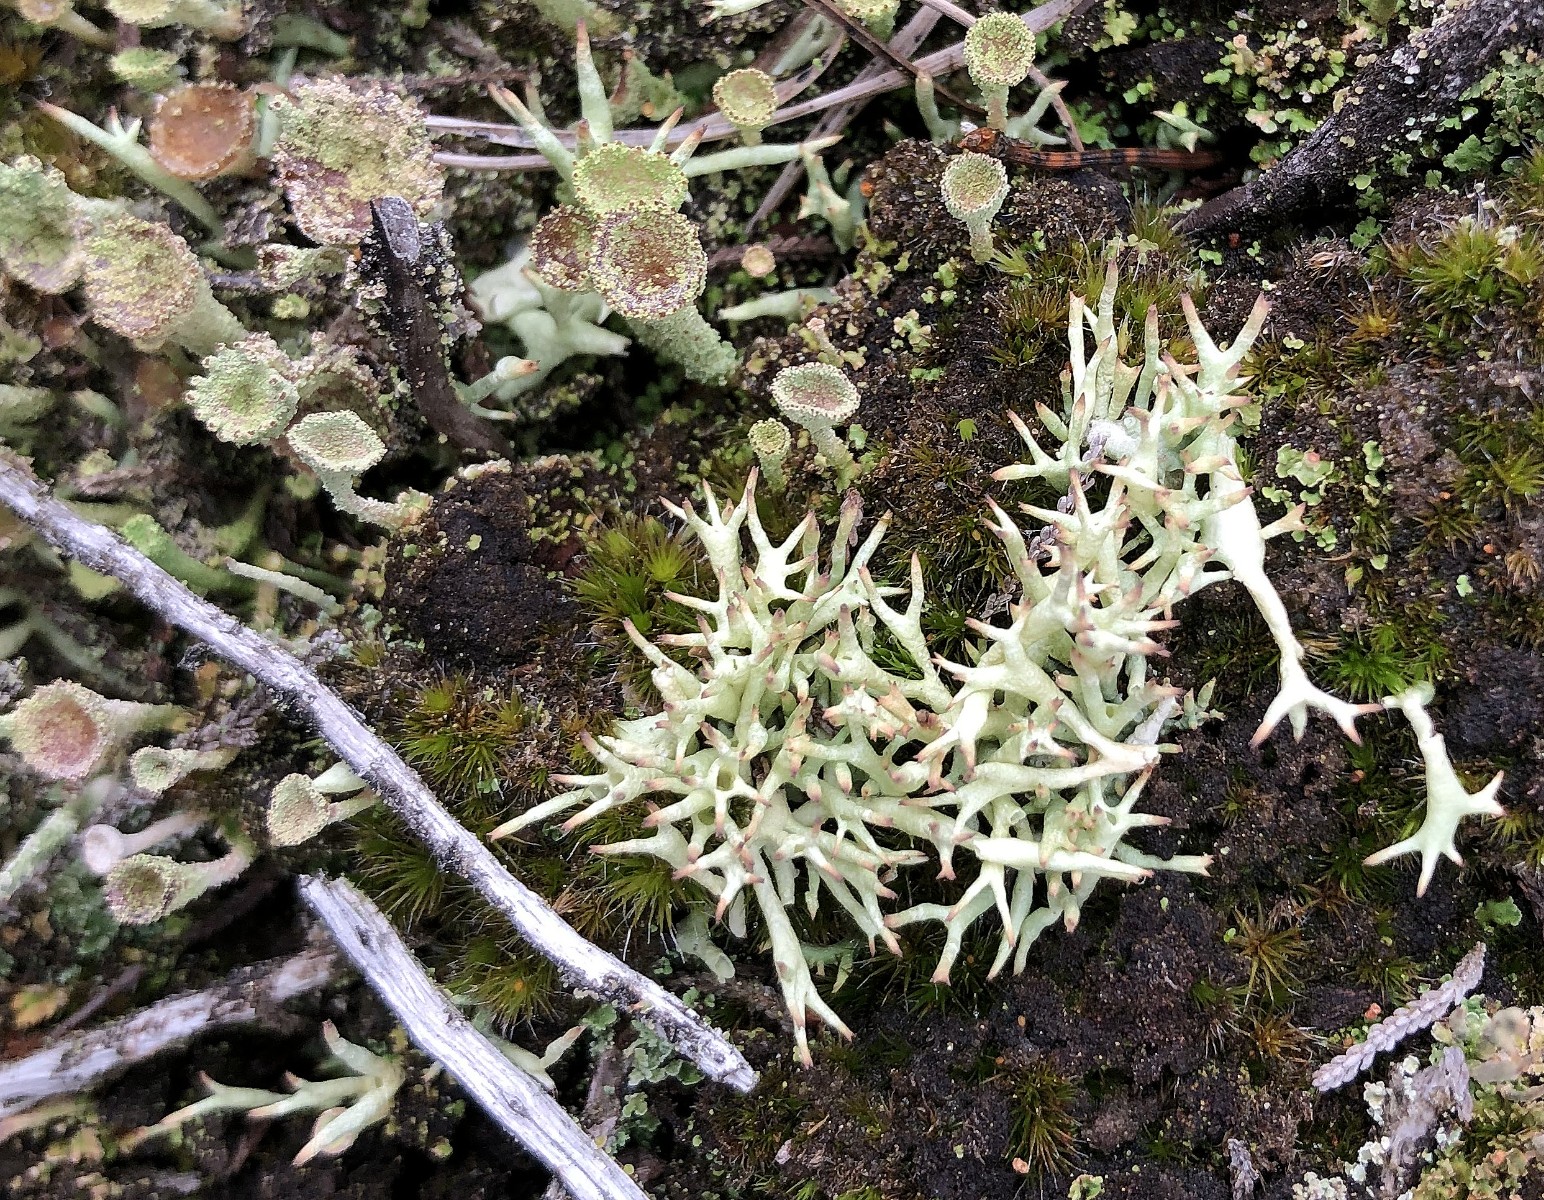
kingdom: Fungi
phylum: Ascomycota
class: Lecanoromycetes
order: Lecanorales
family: Cladoniaceae
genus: Cladonia
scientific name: Cladonia uncialis
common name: pigget bægerlav
